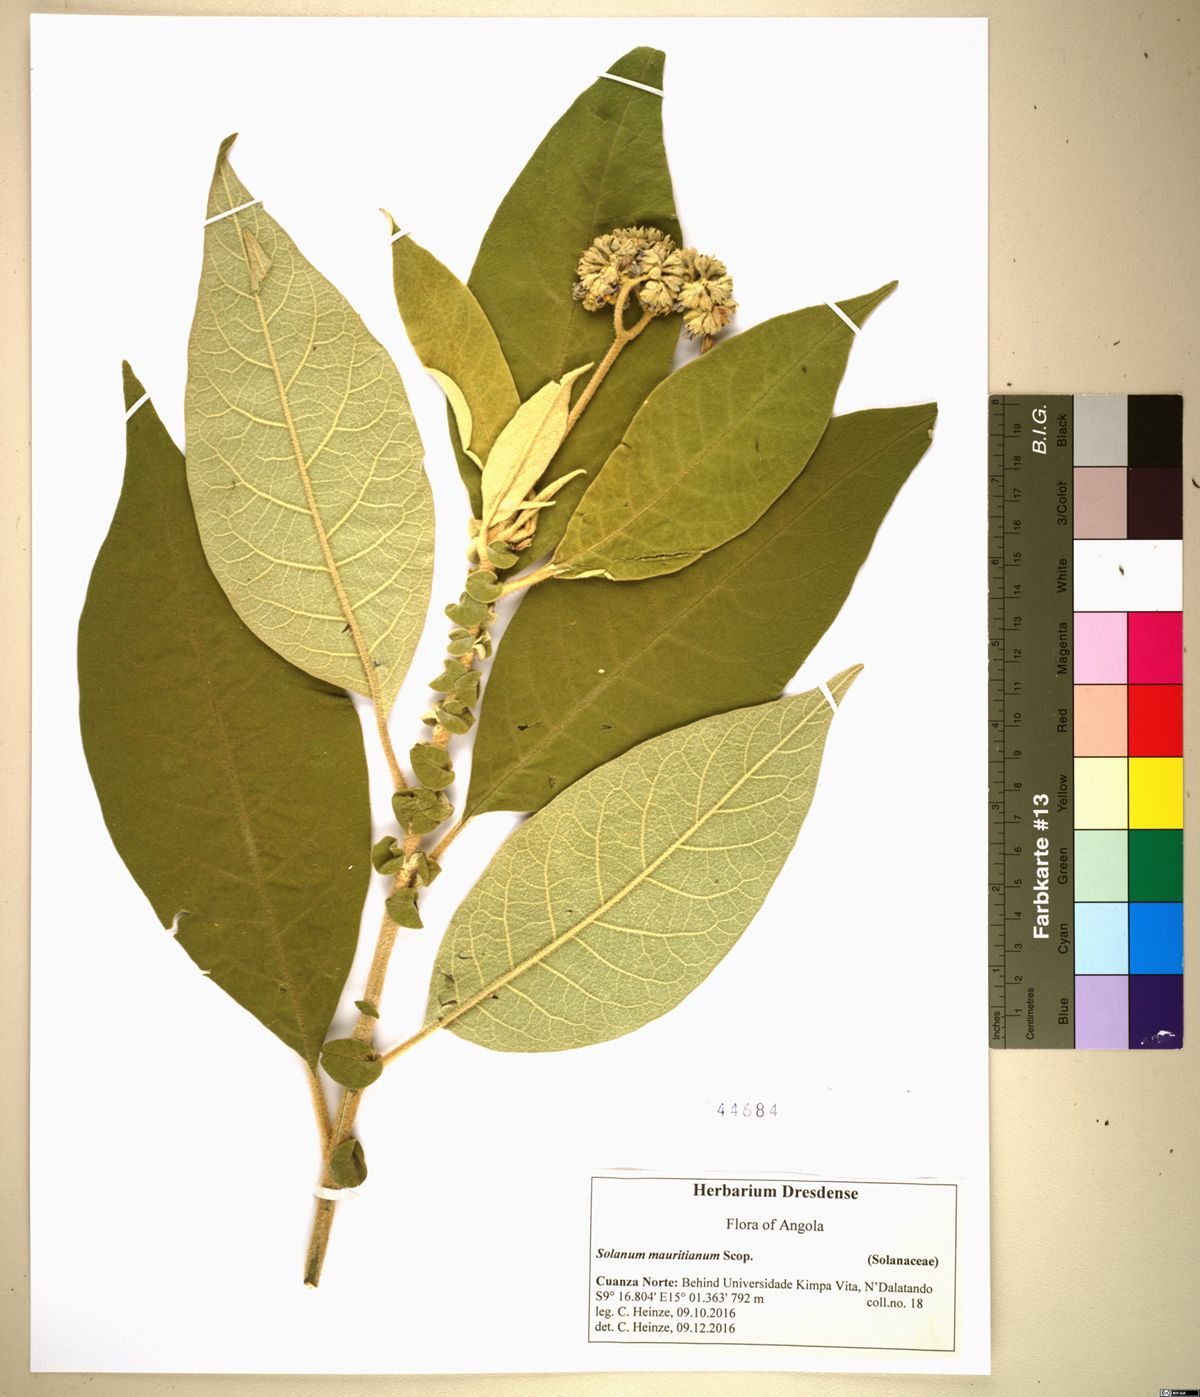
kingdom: Plantae
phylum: Tracheophyta
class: Magnoliopsida
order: Solanales
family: Solanaceae
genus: Solanum
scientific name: Solanum mauritianum
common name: Earleaf nightshade
